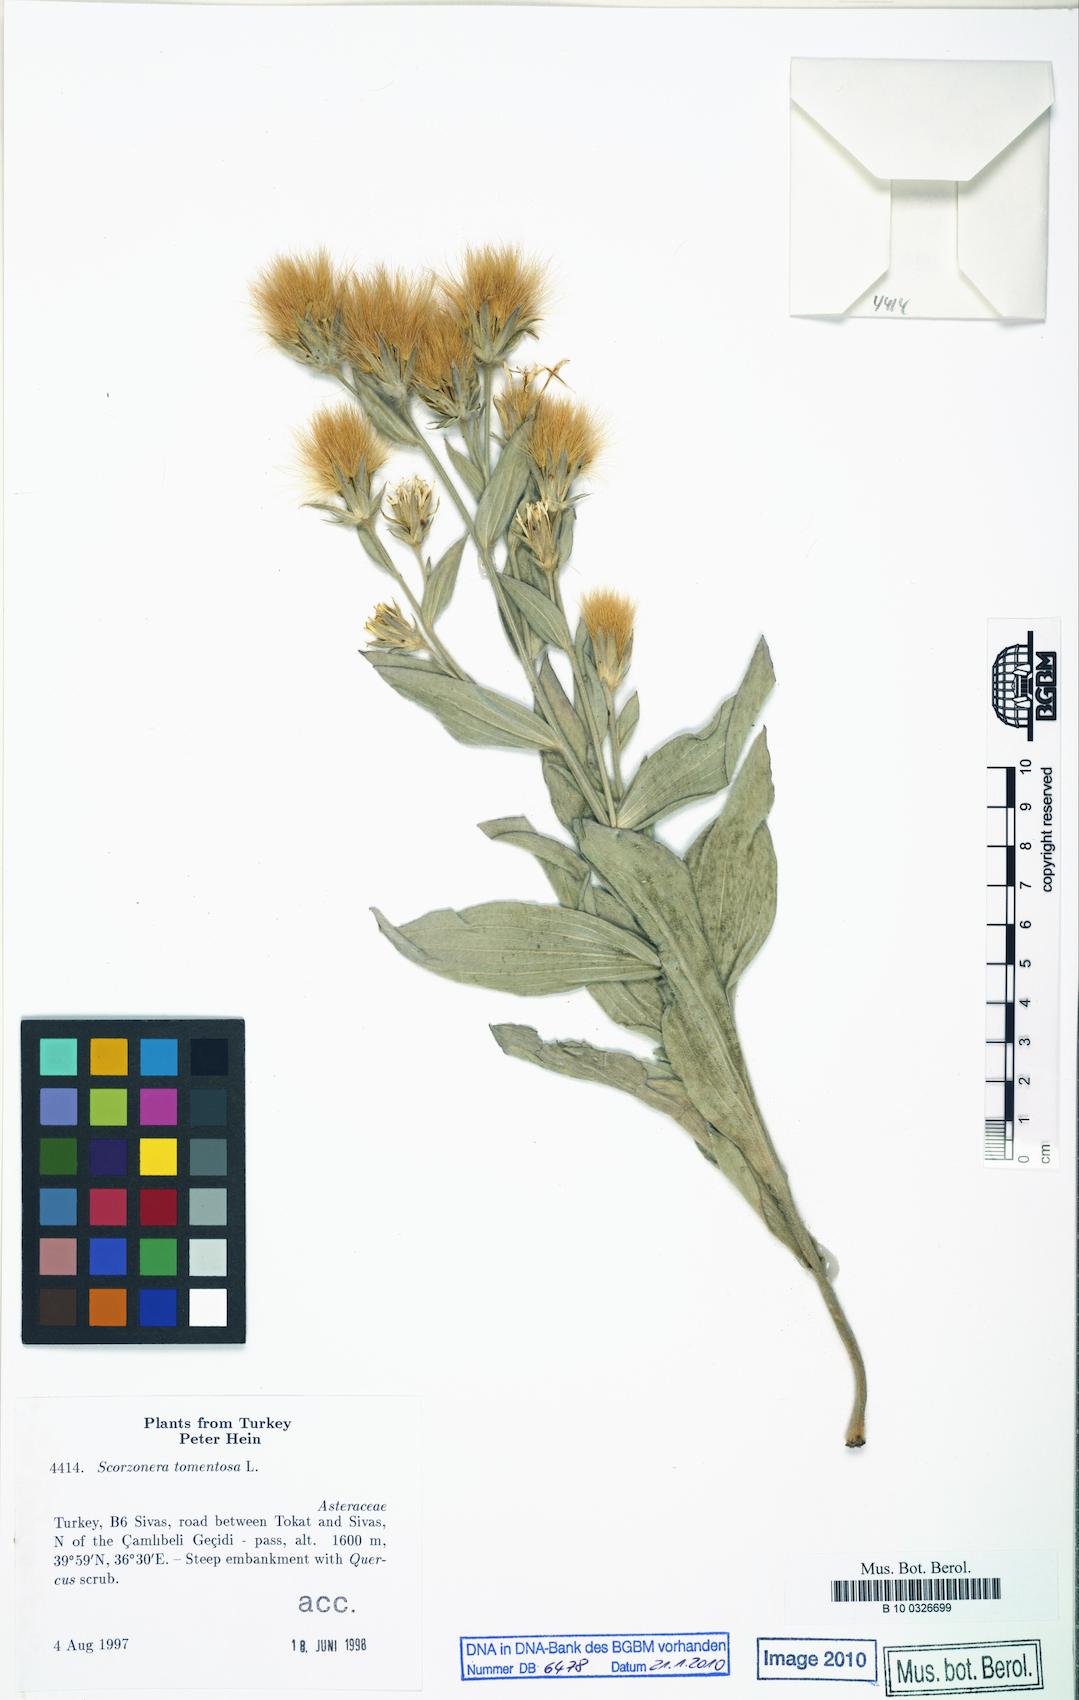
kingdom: Plantae
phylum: Tracheophyta
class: Magnoliopsida
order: Asterales
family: Asteraceae
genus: Guneria
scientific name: Guneria tomentosa
